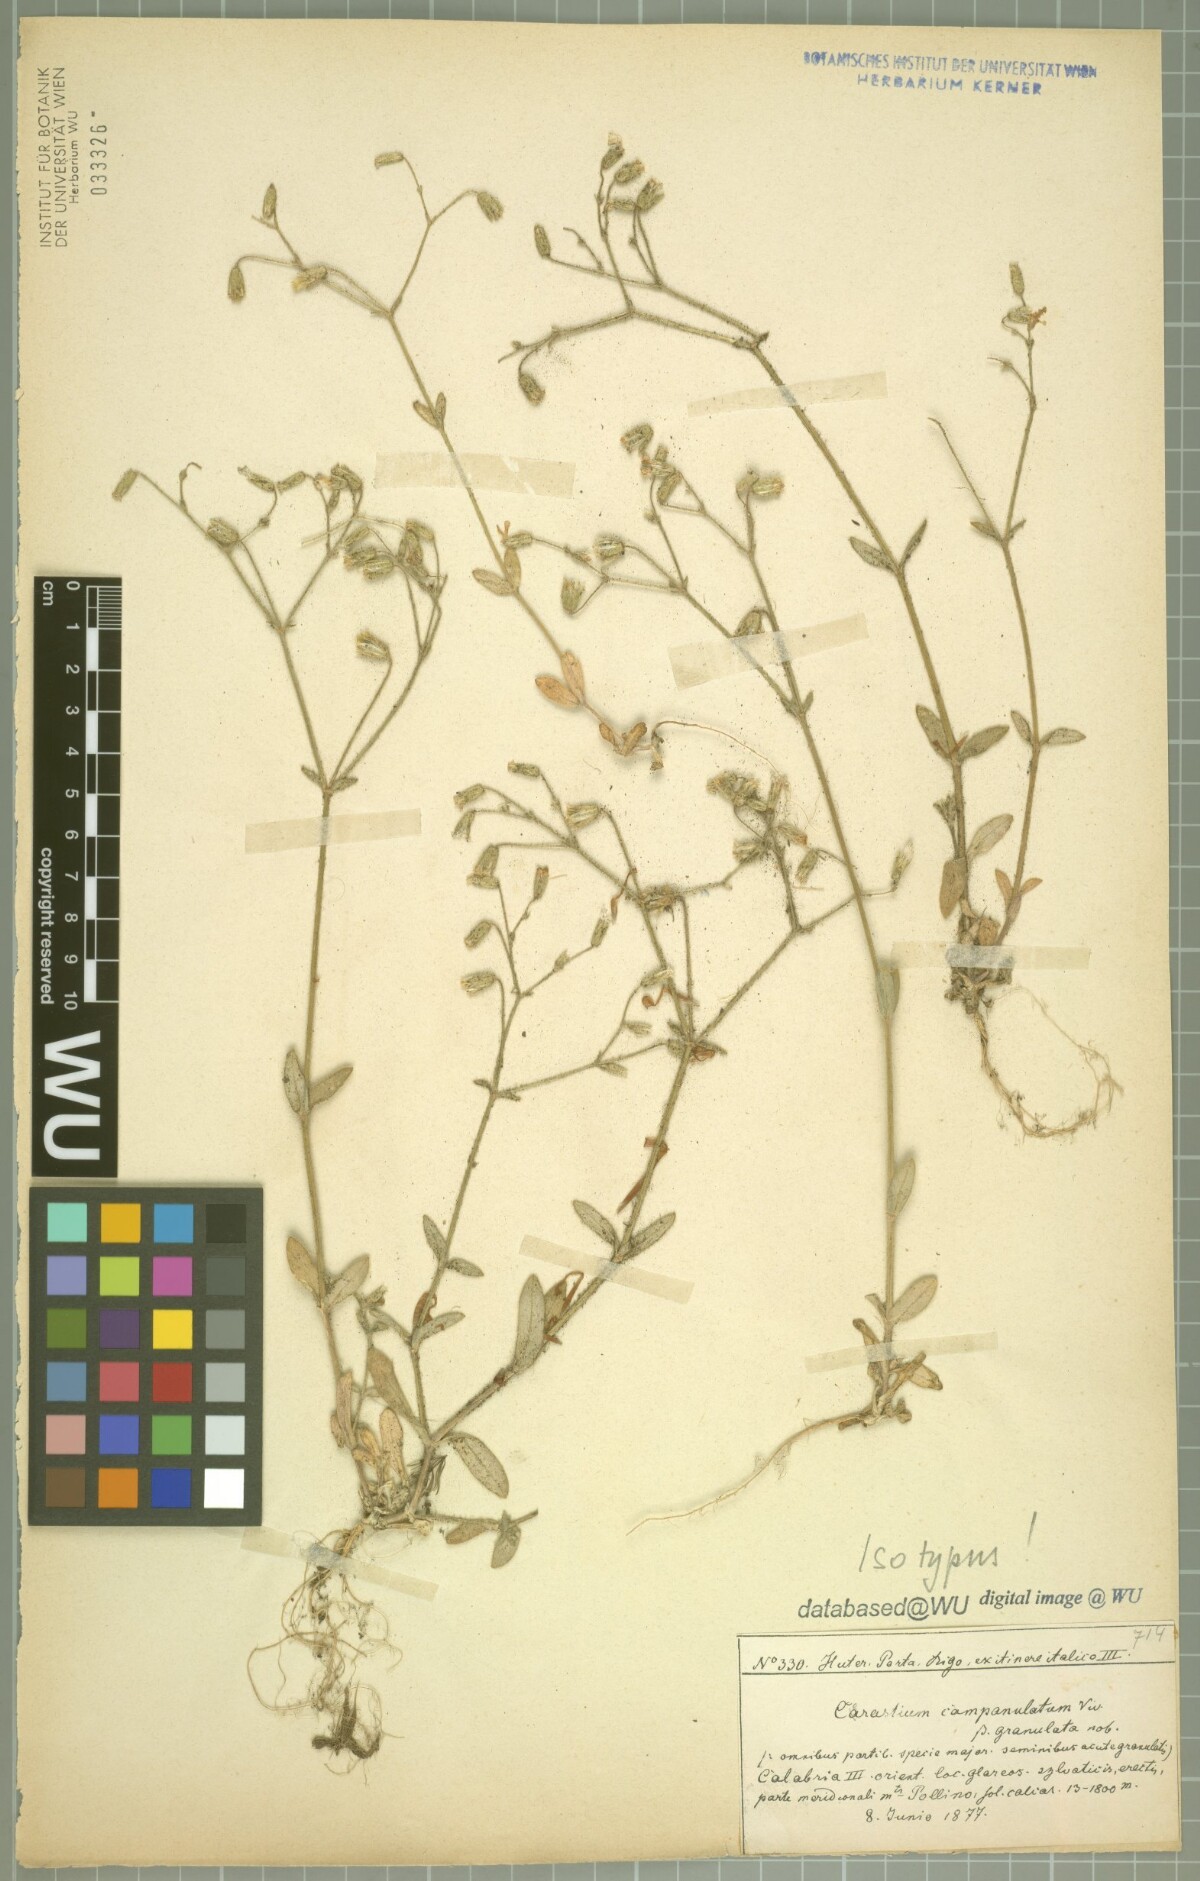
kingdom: Plantae
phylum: Tracheophyta
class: Magnoliopsida
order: Caryophyllales
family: Caryophyllaceae
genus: Cerastium
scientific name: Cerastium ligusticum
